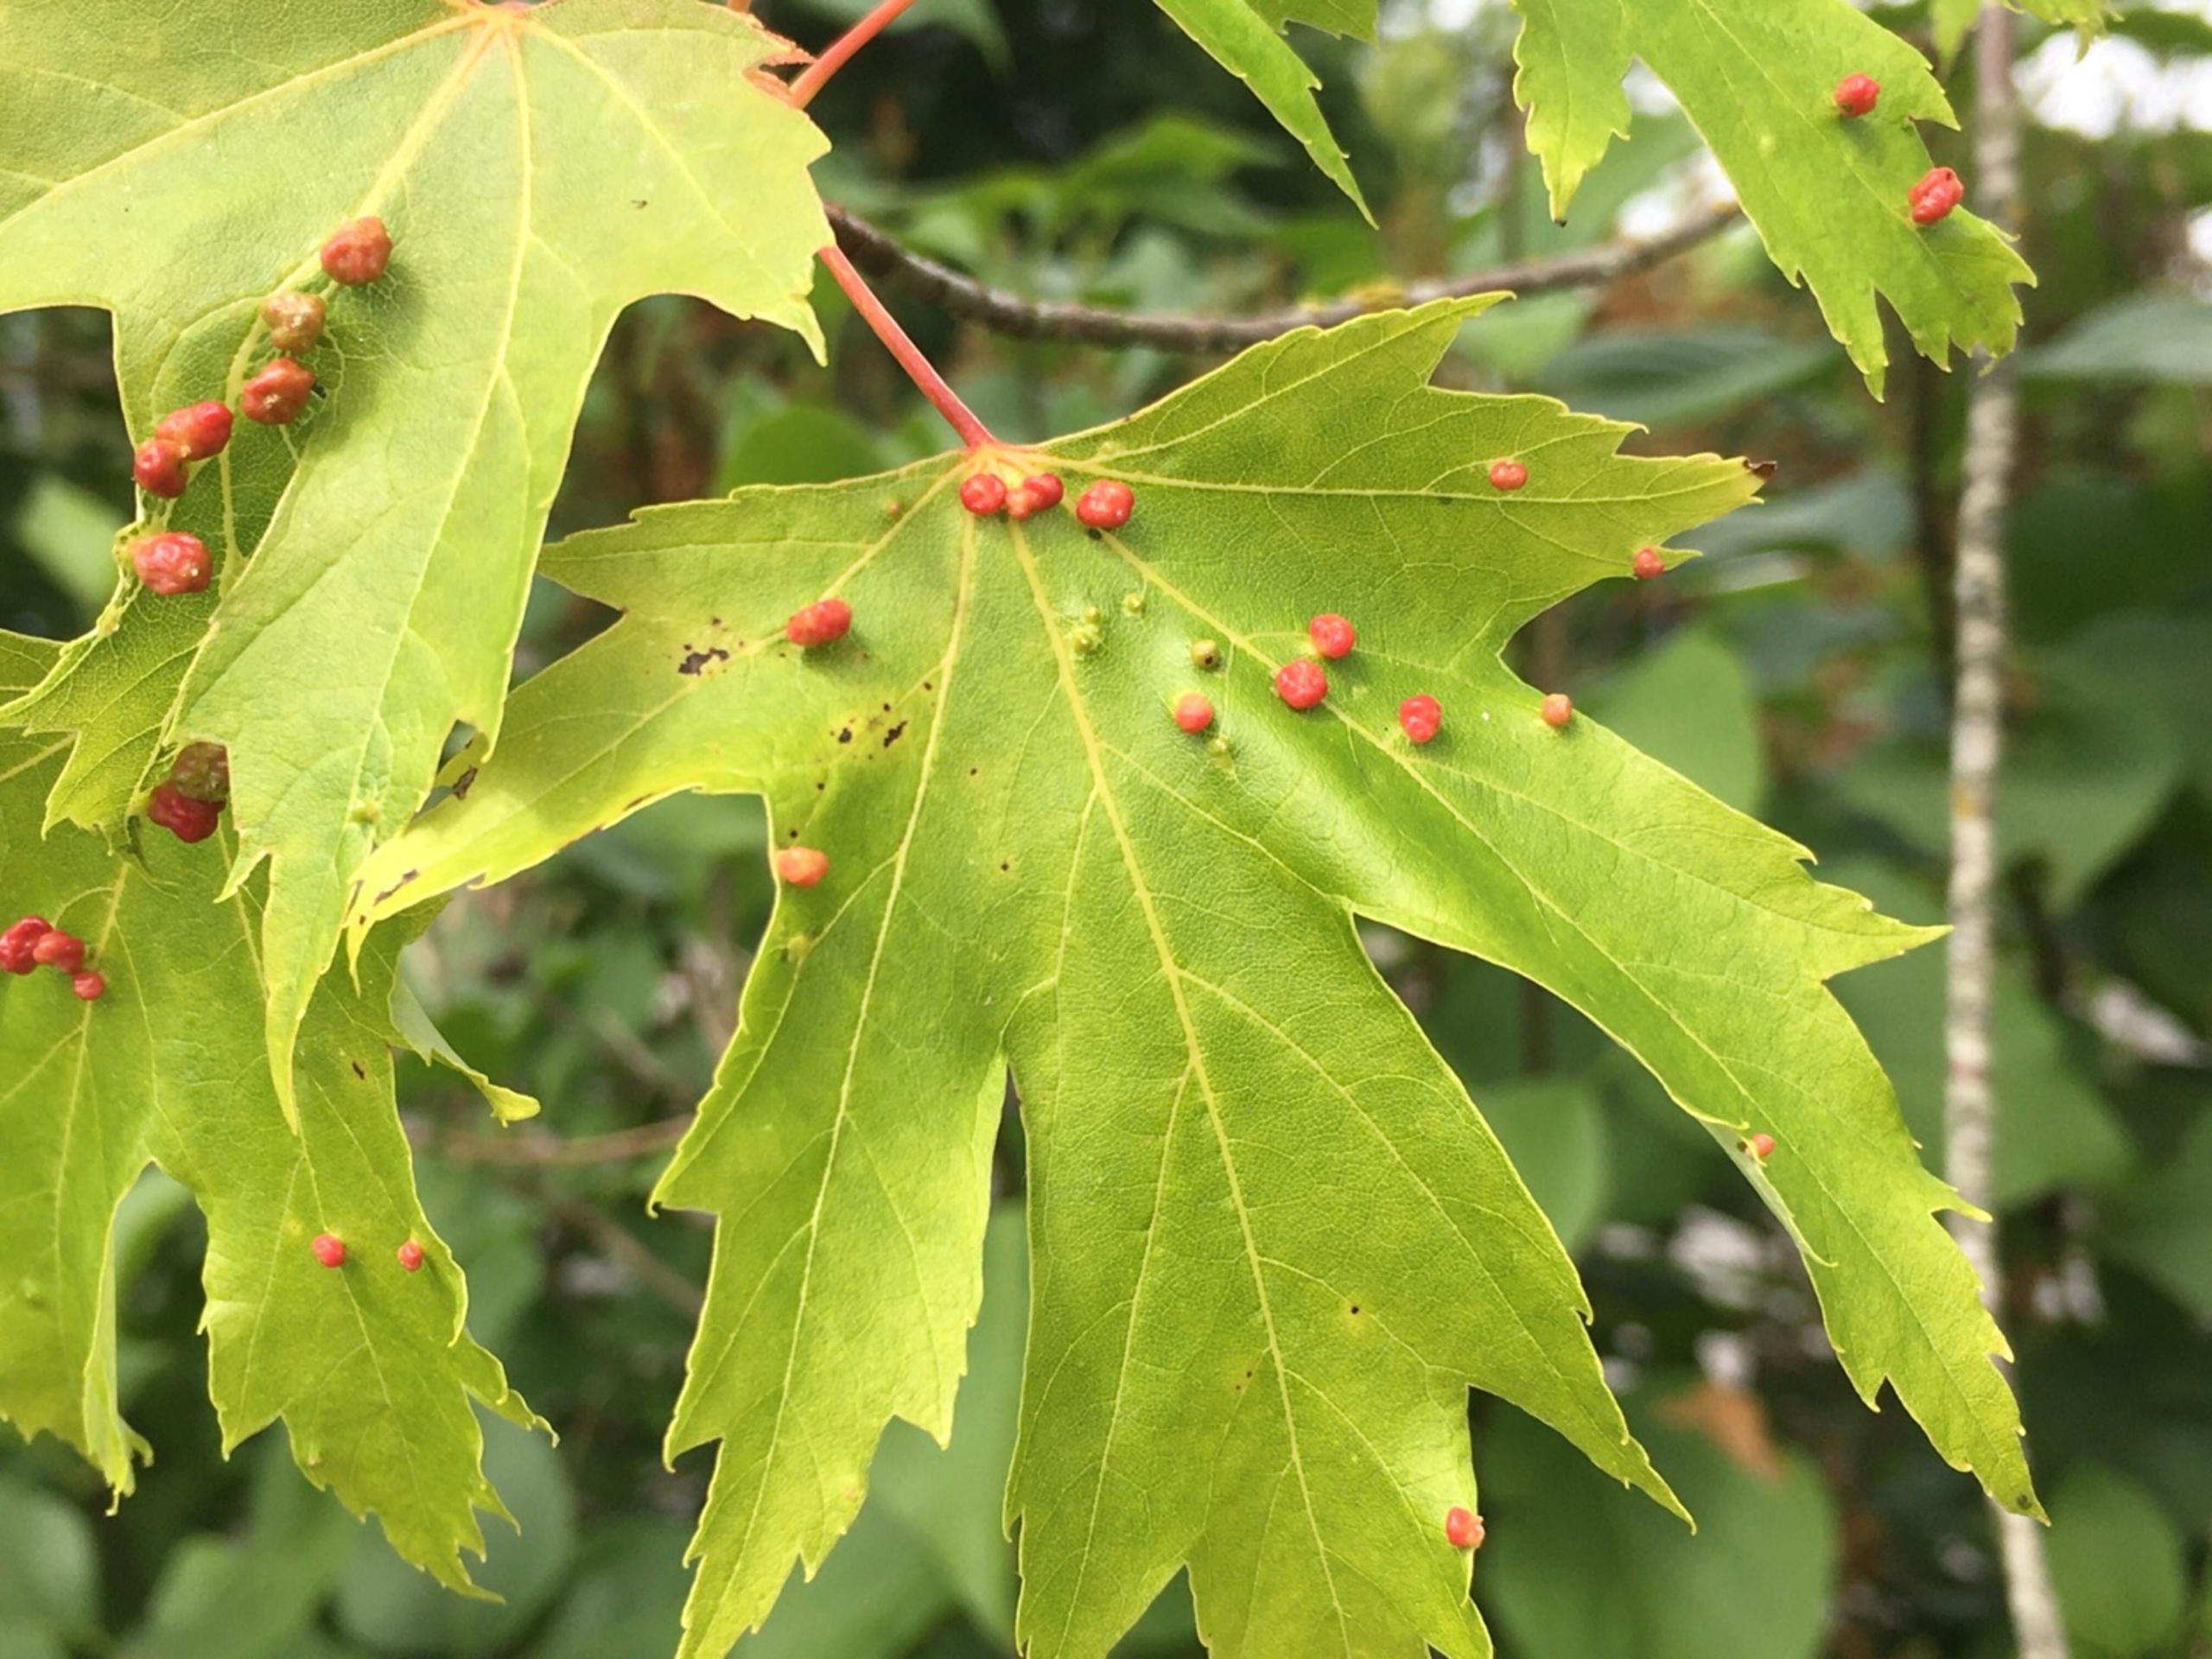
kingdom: Animalia
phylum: Arthropoda
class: Arachnida
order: Trombidiformes
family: Eriophyidae
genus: Vasates
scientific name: Vasates quadripedes
